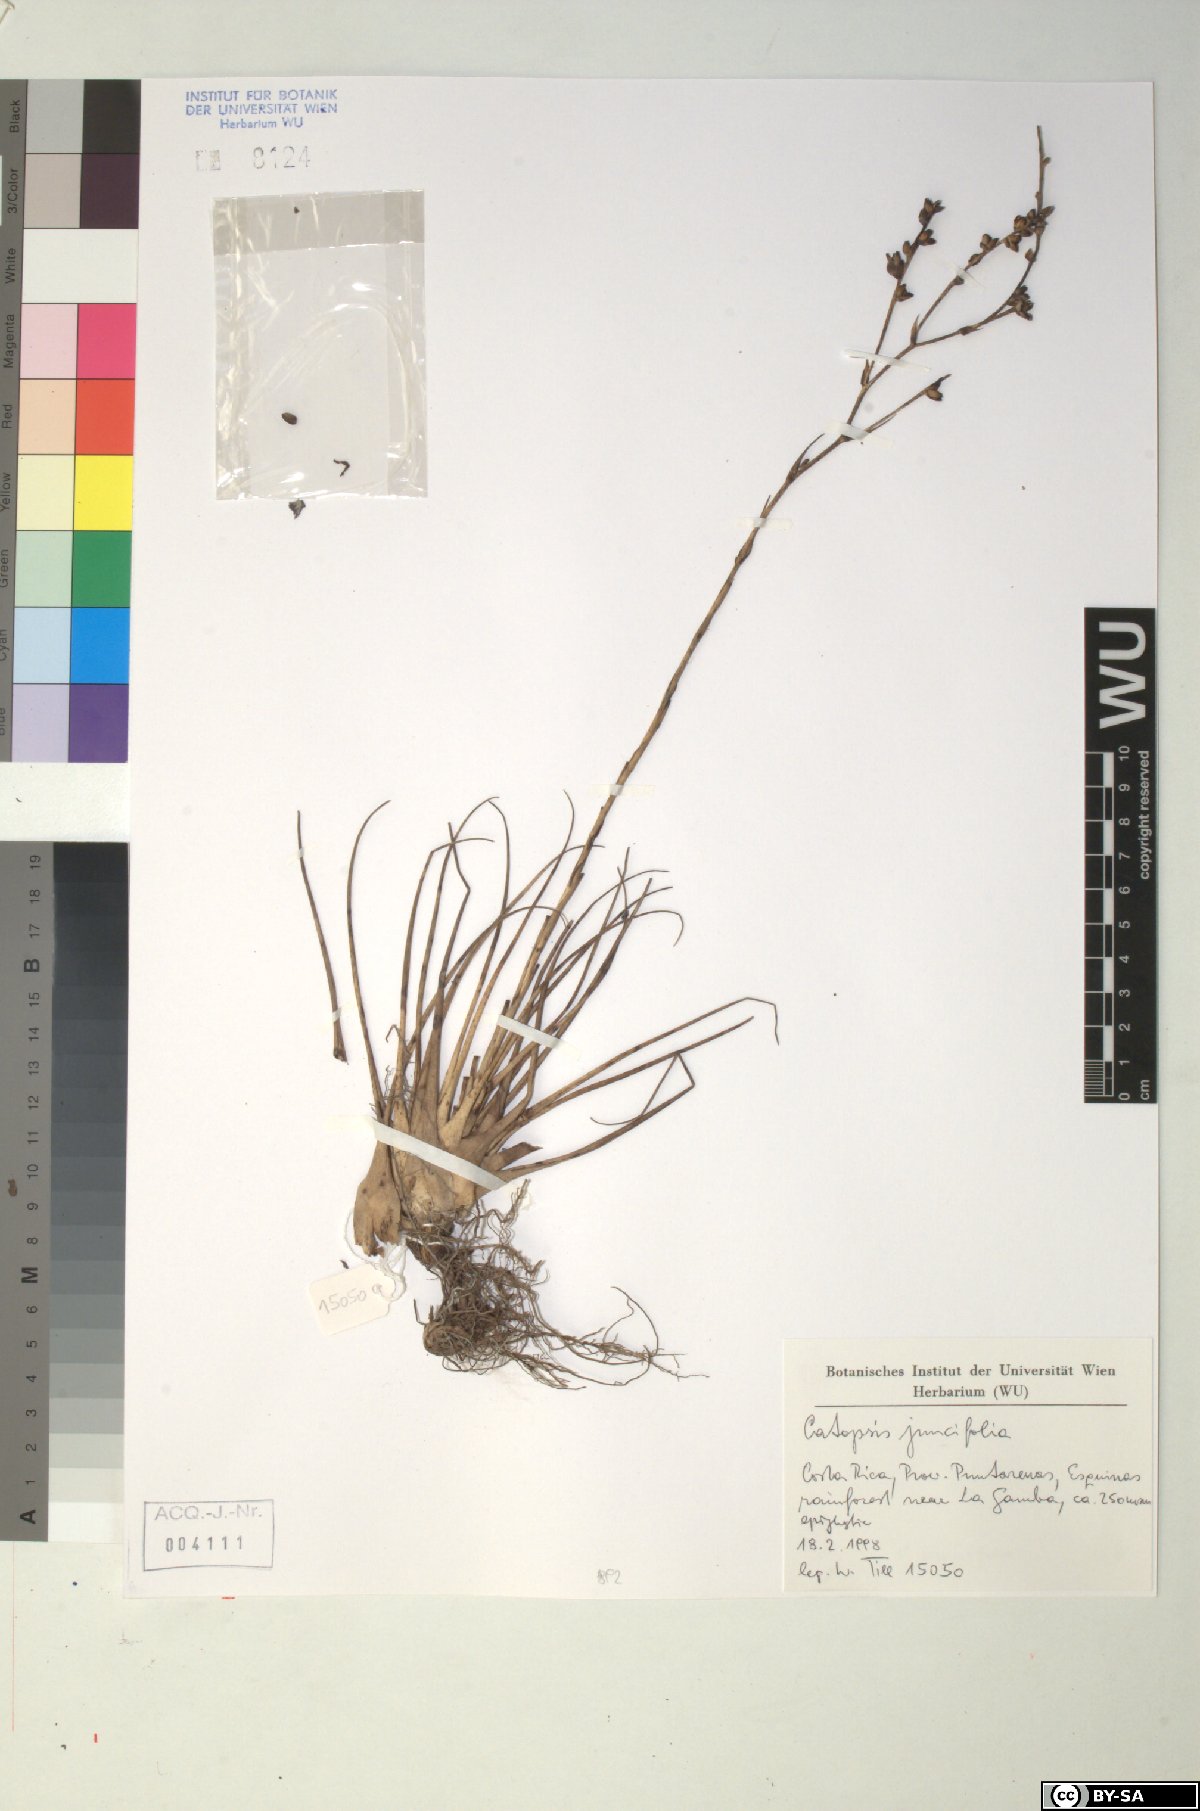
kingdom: Plantae
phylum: Tracheophyta
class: Liliopsida
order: Poales
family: Bromeliaceae
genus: Catopsis
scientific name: Catopsis juncifolia
